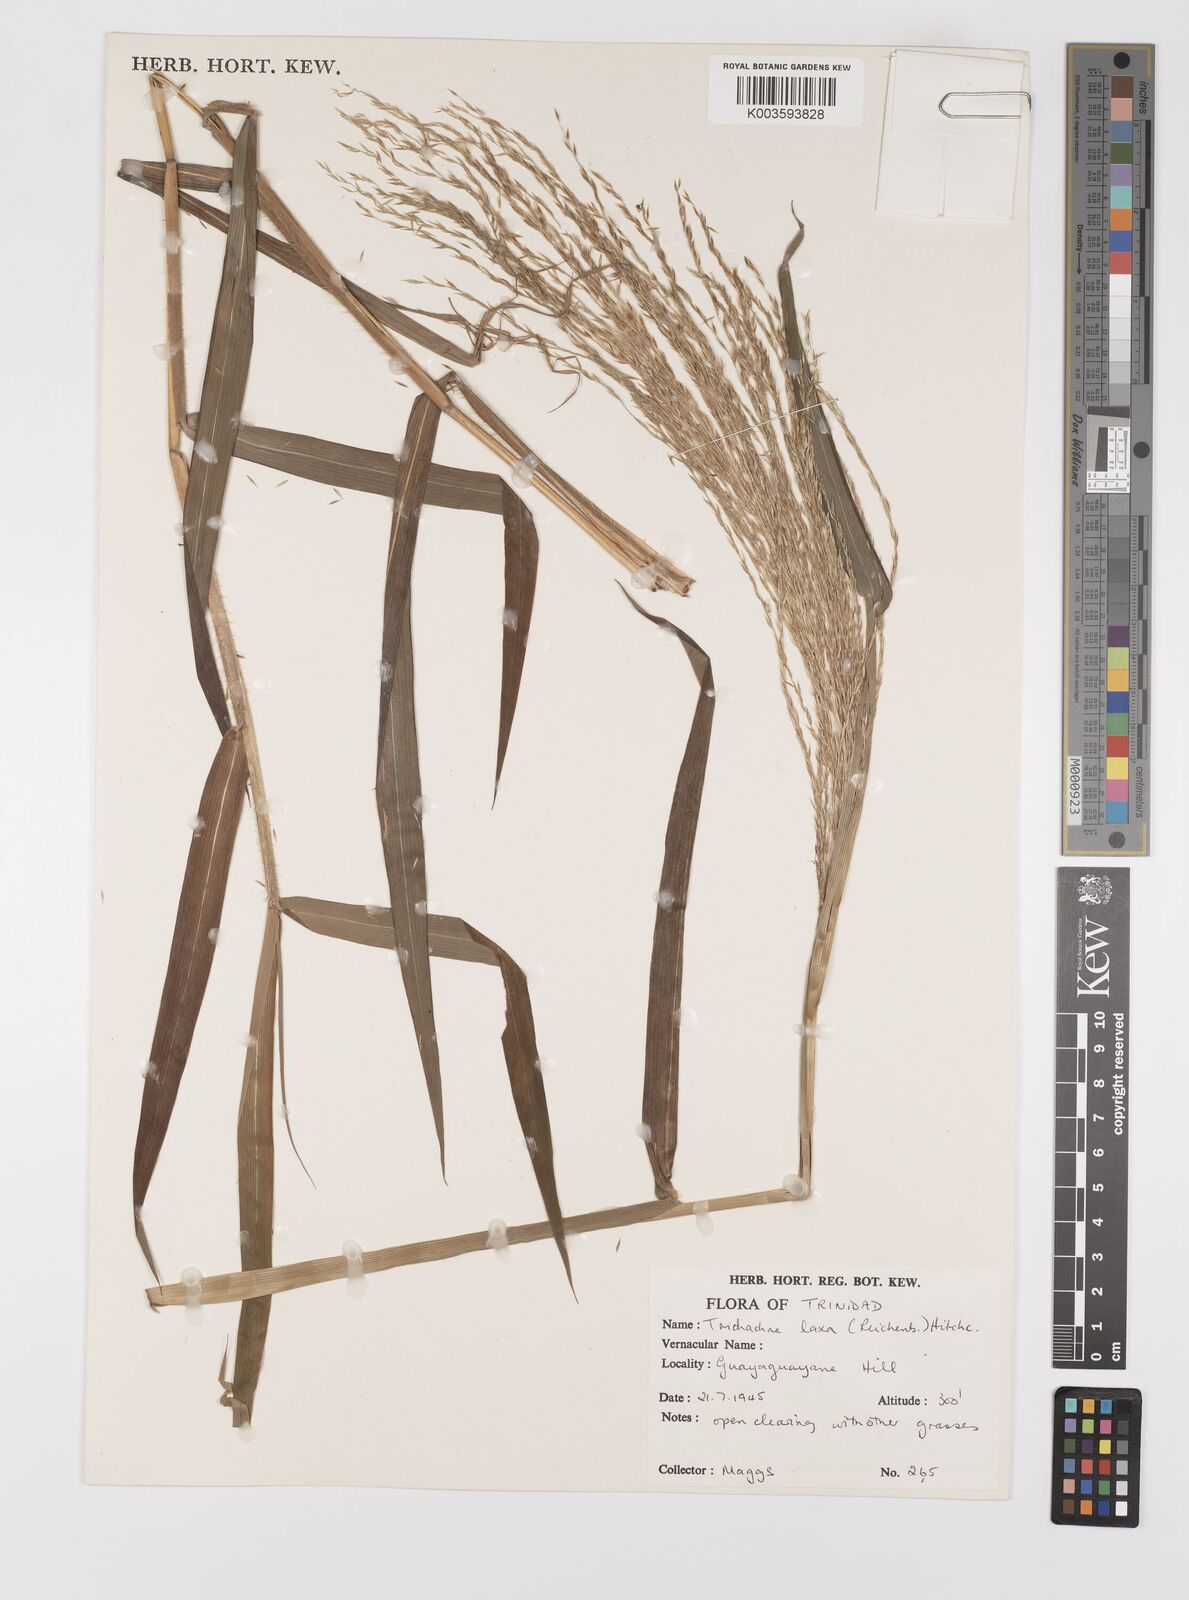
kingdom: Plantae
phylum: Tracheophyta
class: Liliopsida
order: Poales
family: Poaceae
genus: Digitaria
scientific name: Digitaria laxa
